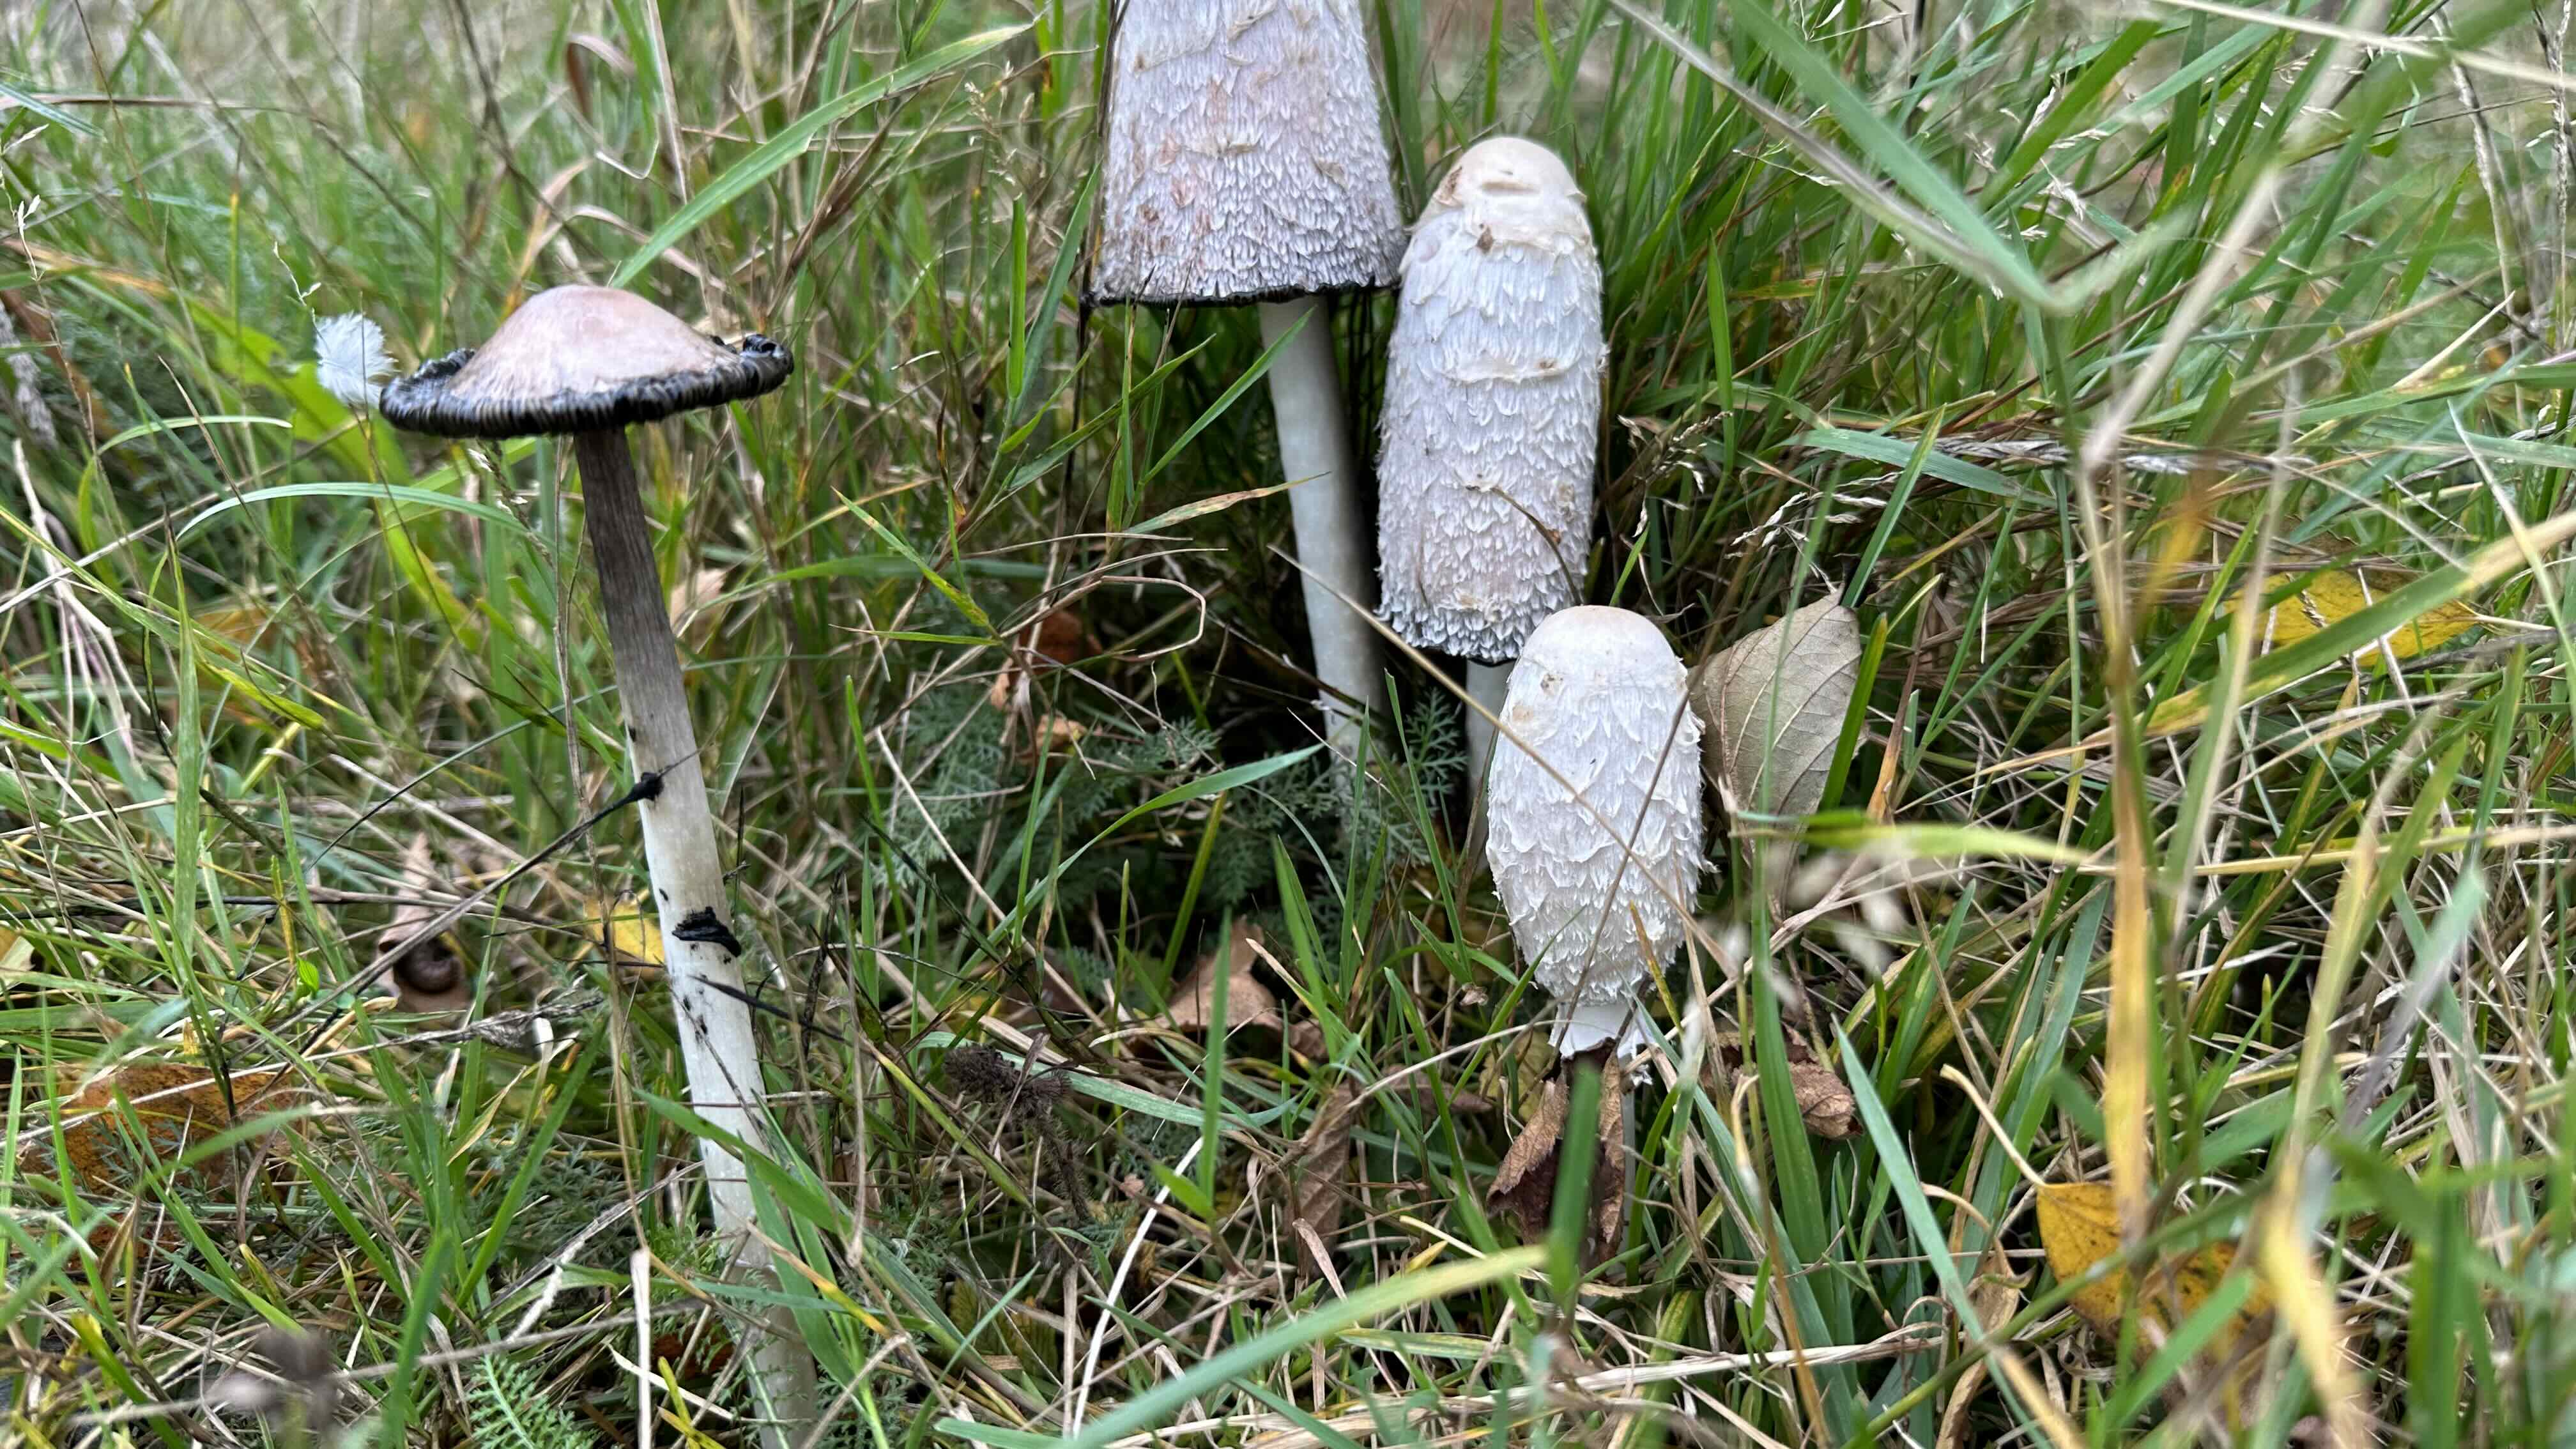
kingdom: Fungi
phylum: Basidiomycota
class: Agaricomycetes
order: Agaricales
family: Agaricaceae
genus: Coprinus
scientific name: Coprinus comatus
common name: stor parykhat
